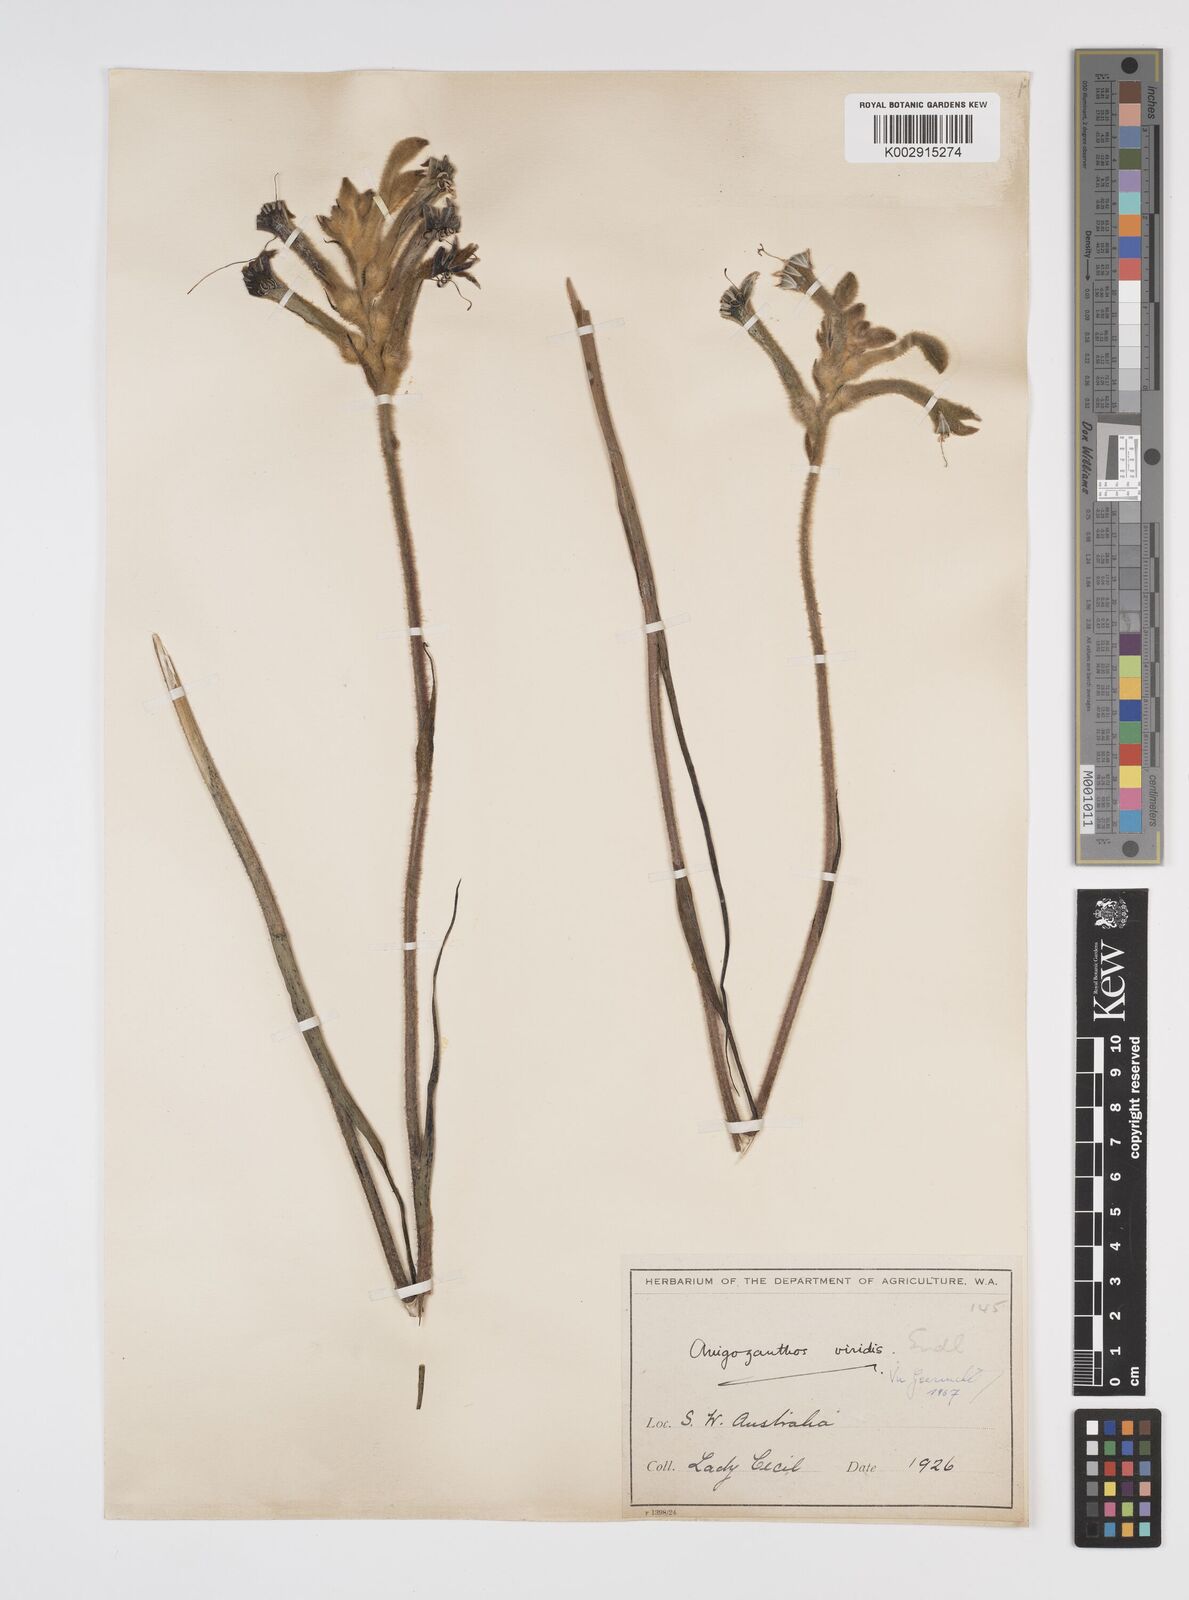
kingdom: Plantae
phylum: Tracheophyta
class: Liliopsida
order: Commelinales
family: Haemodoraceae
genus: Anigozanthos
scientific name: Anigozanthos viridis
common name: Green kangaroo-paw
